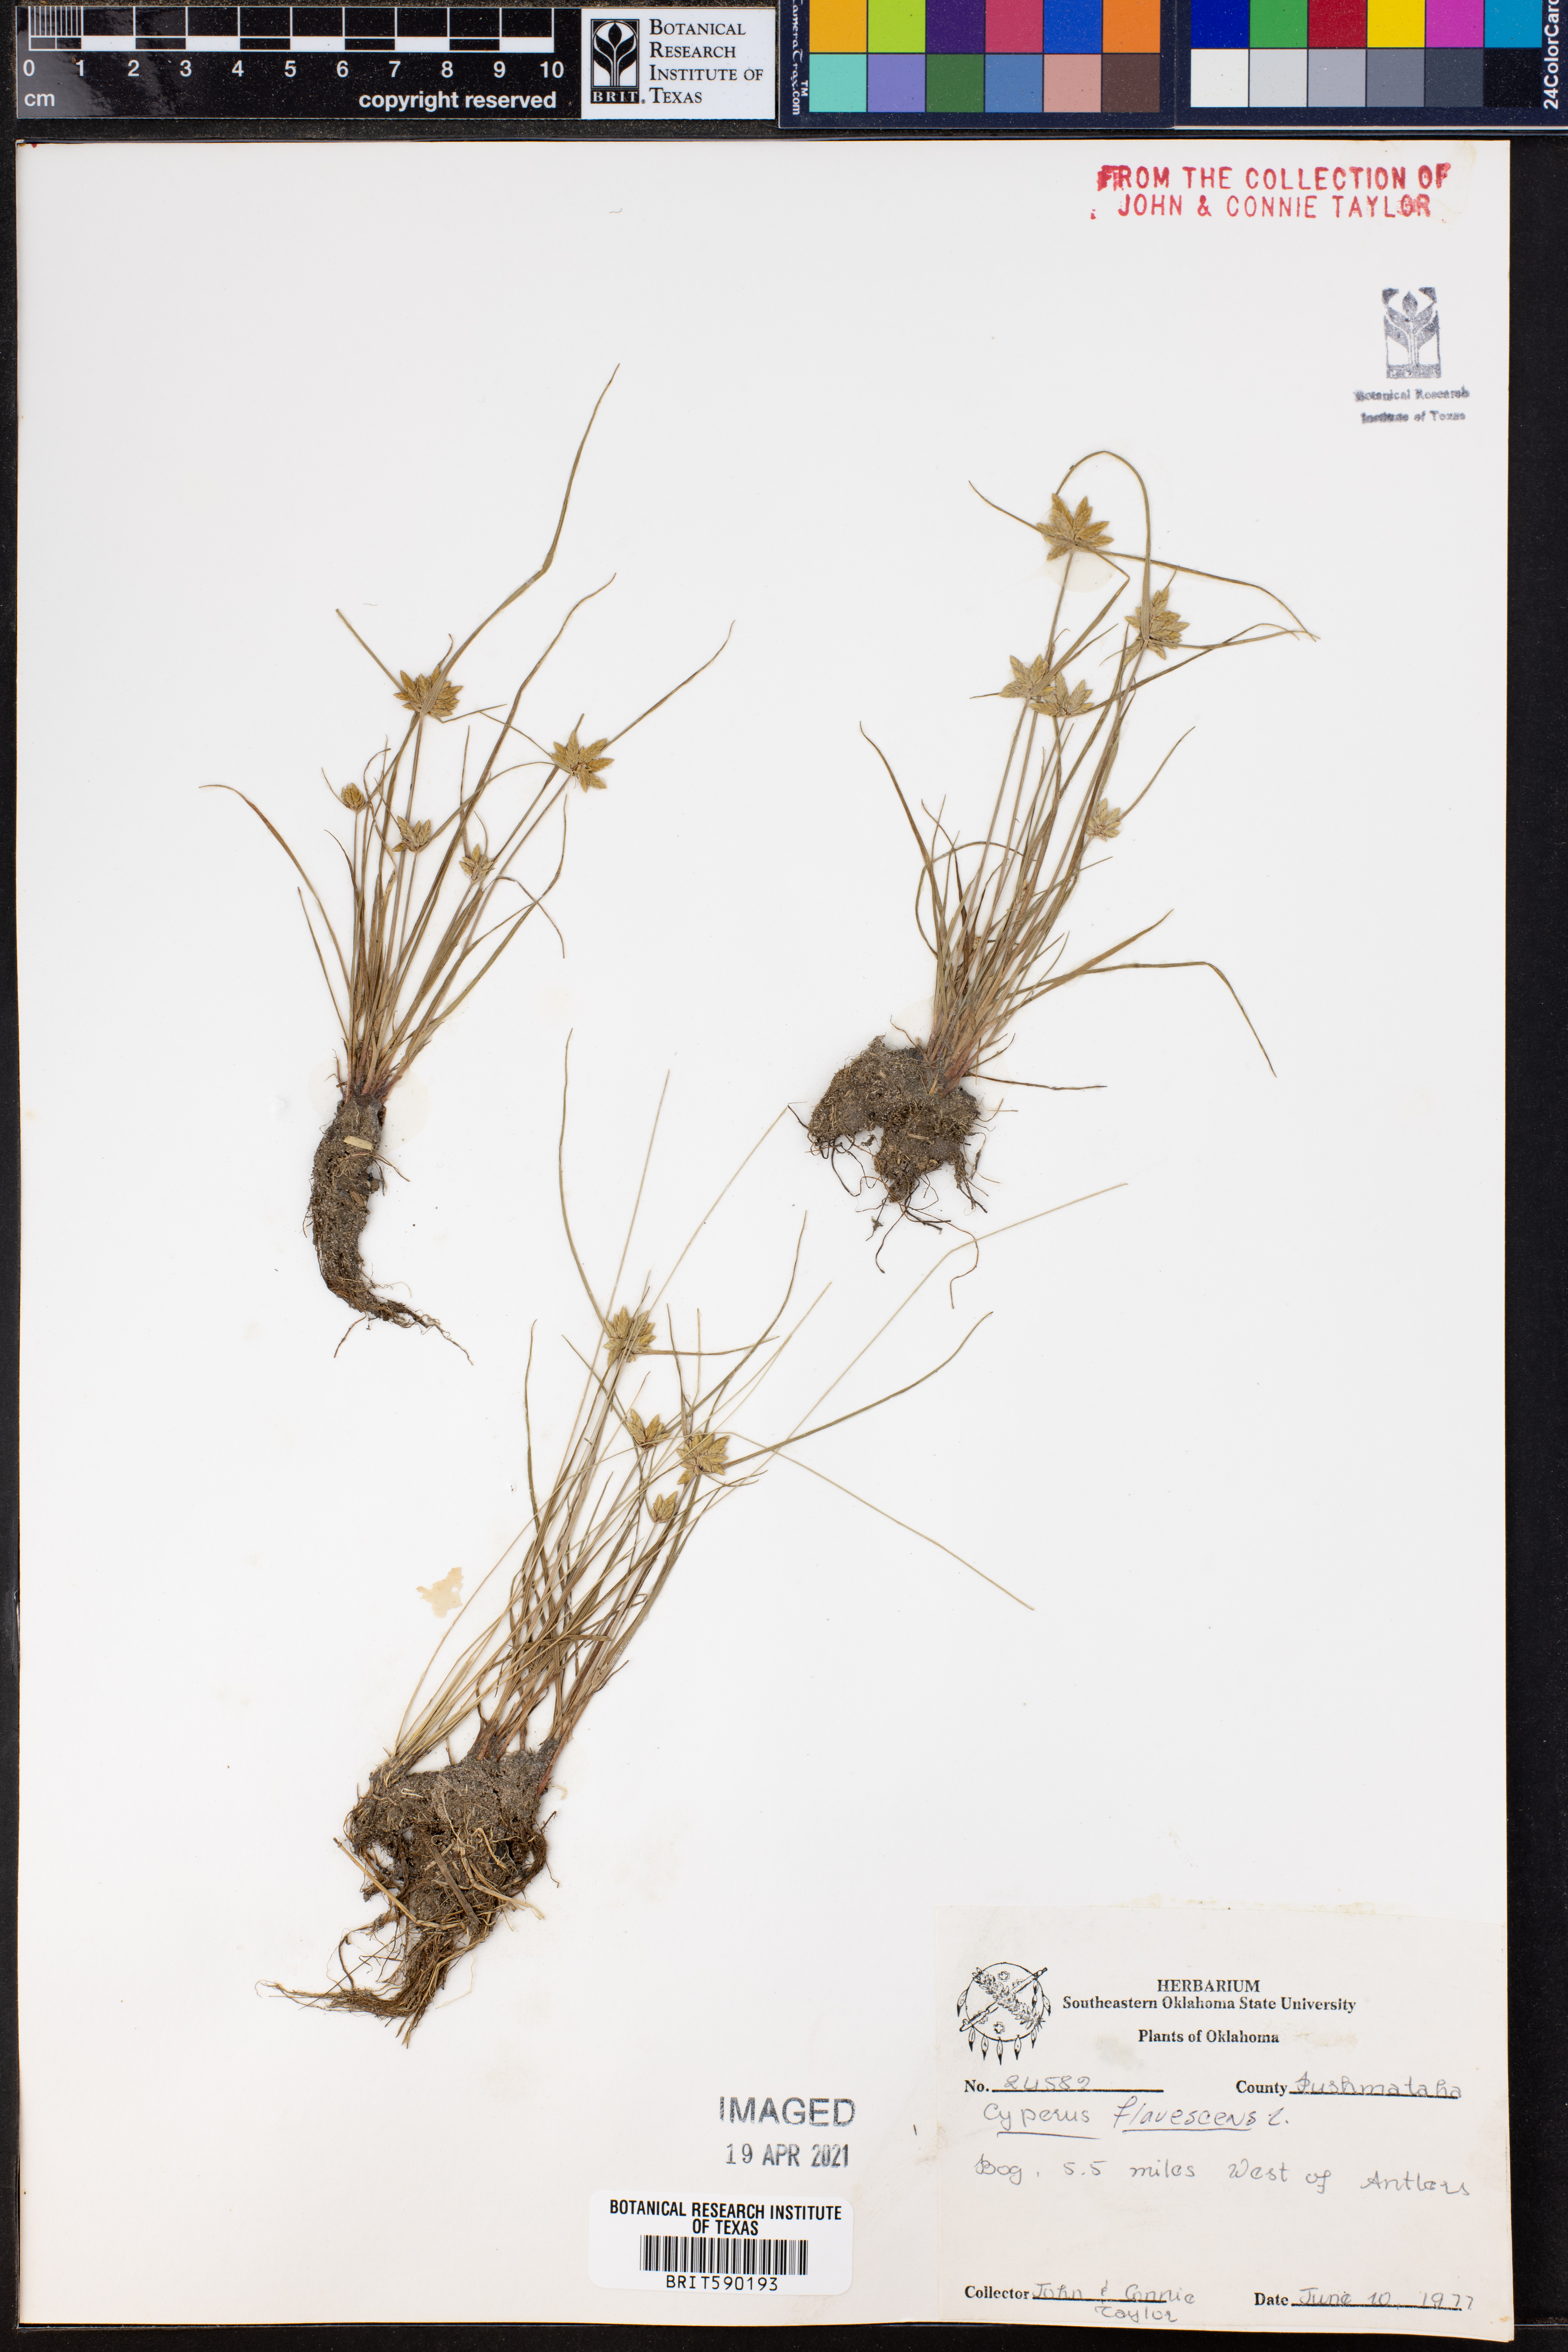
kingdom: Plantae
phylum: Tracheophyta
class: Liliopsida
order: Poales
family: Cyperaceae
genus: Cyperus
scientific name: Cyperus flavescens
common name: Yellow galingale
